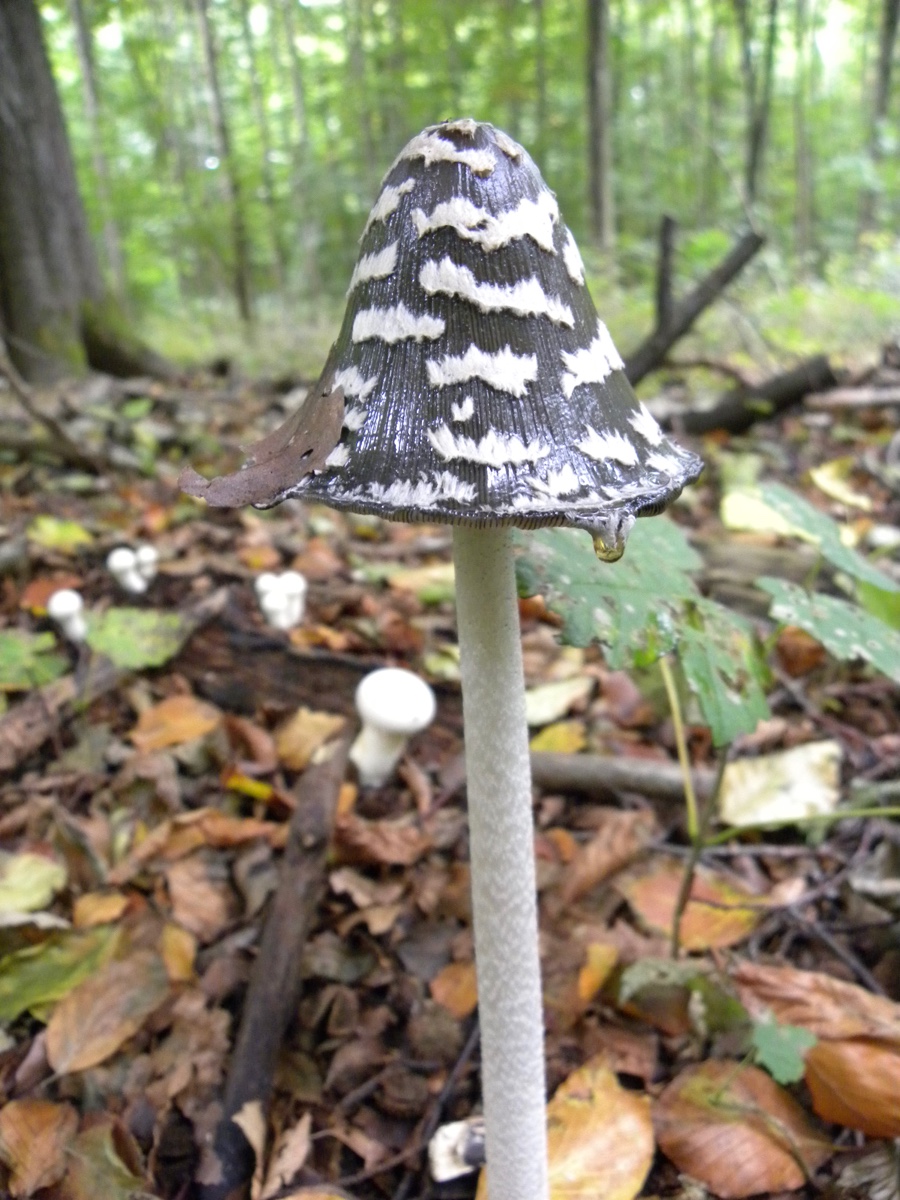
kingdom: Fungi
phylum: Basidiomycota
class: Agaricomycetes
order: Agaricales
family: Psathyrellaceae
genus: Coprinopsis
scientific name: Coprinopsis picacea
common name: skade-blækhat
